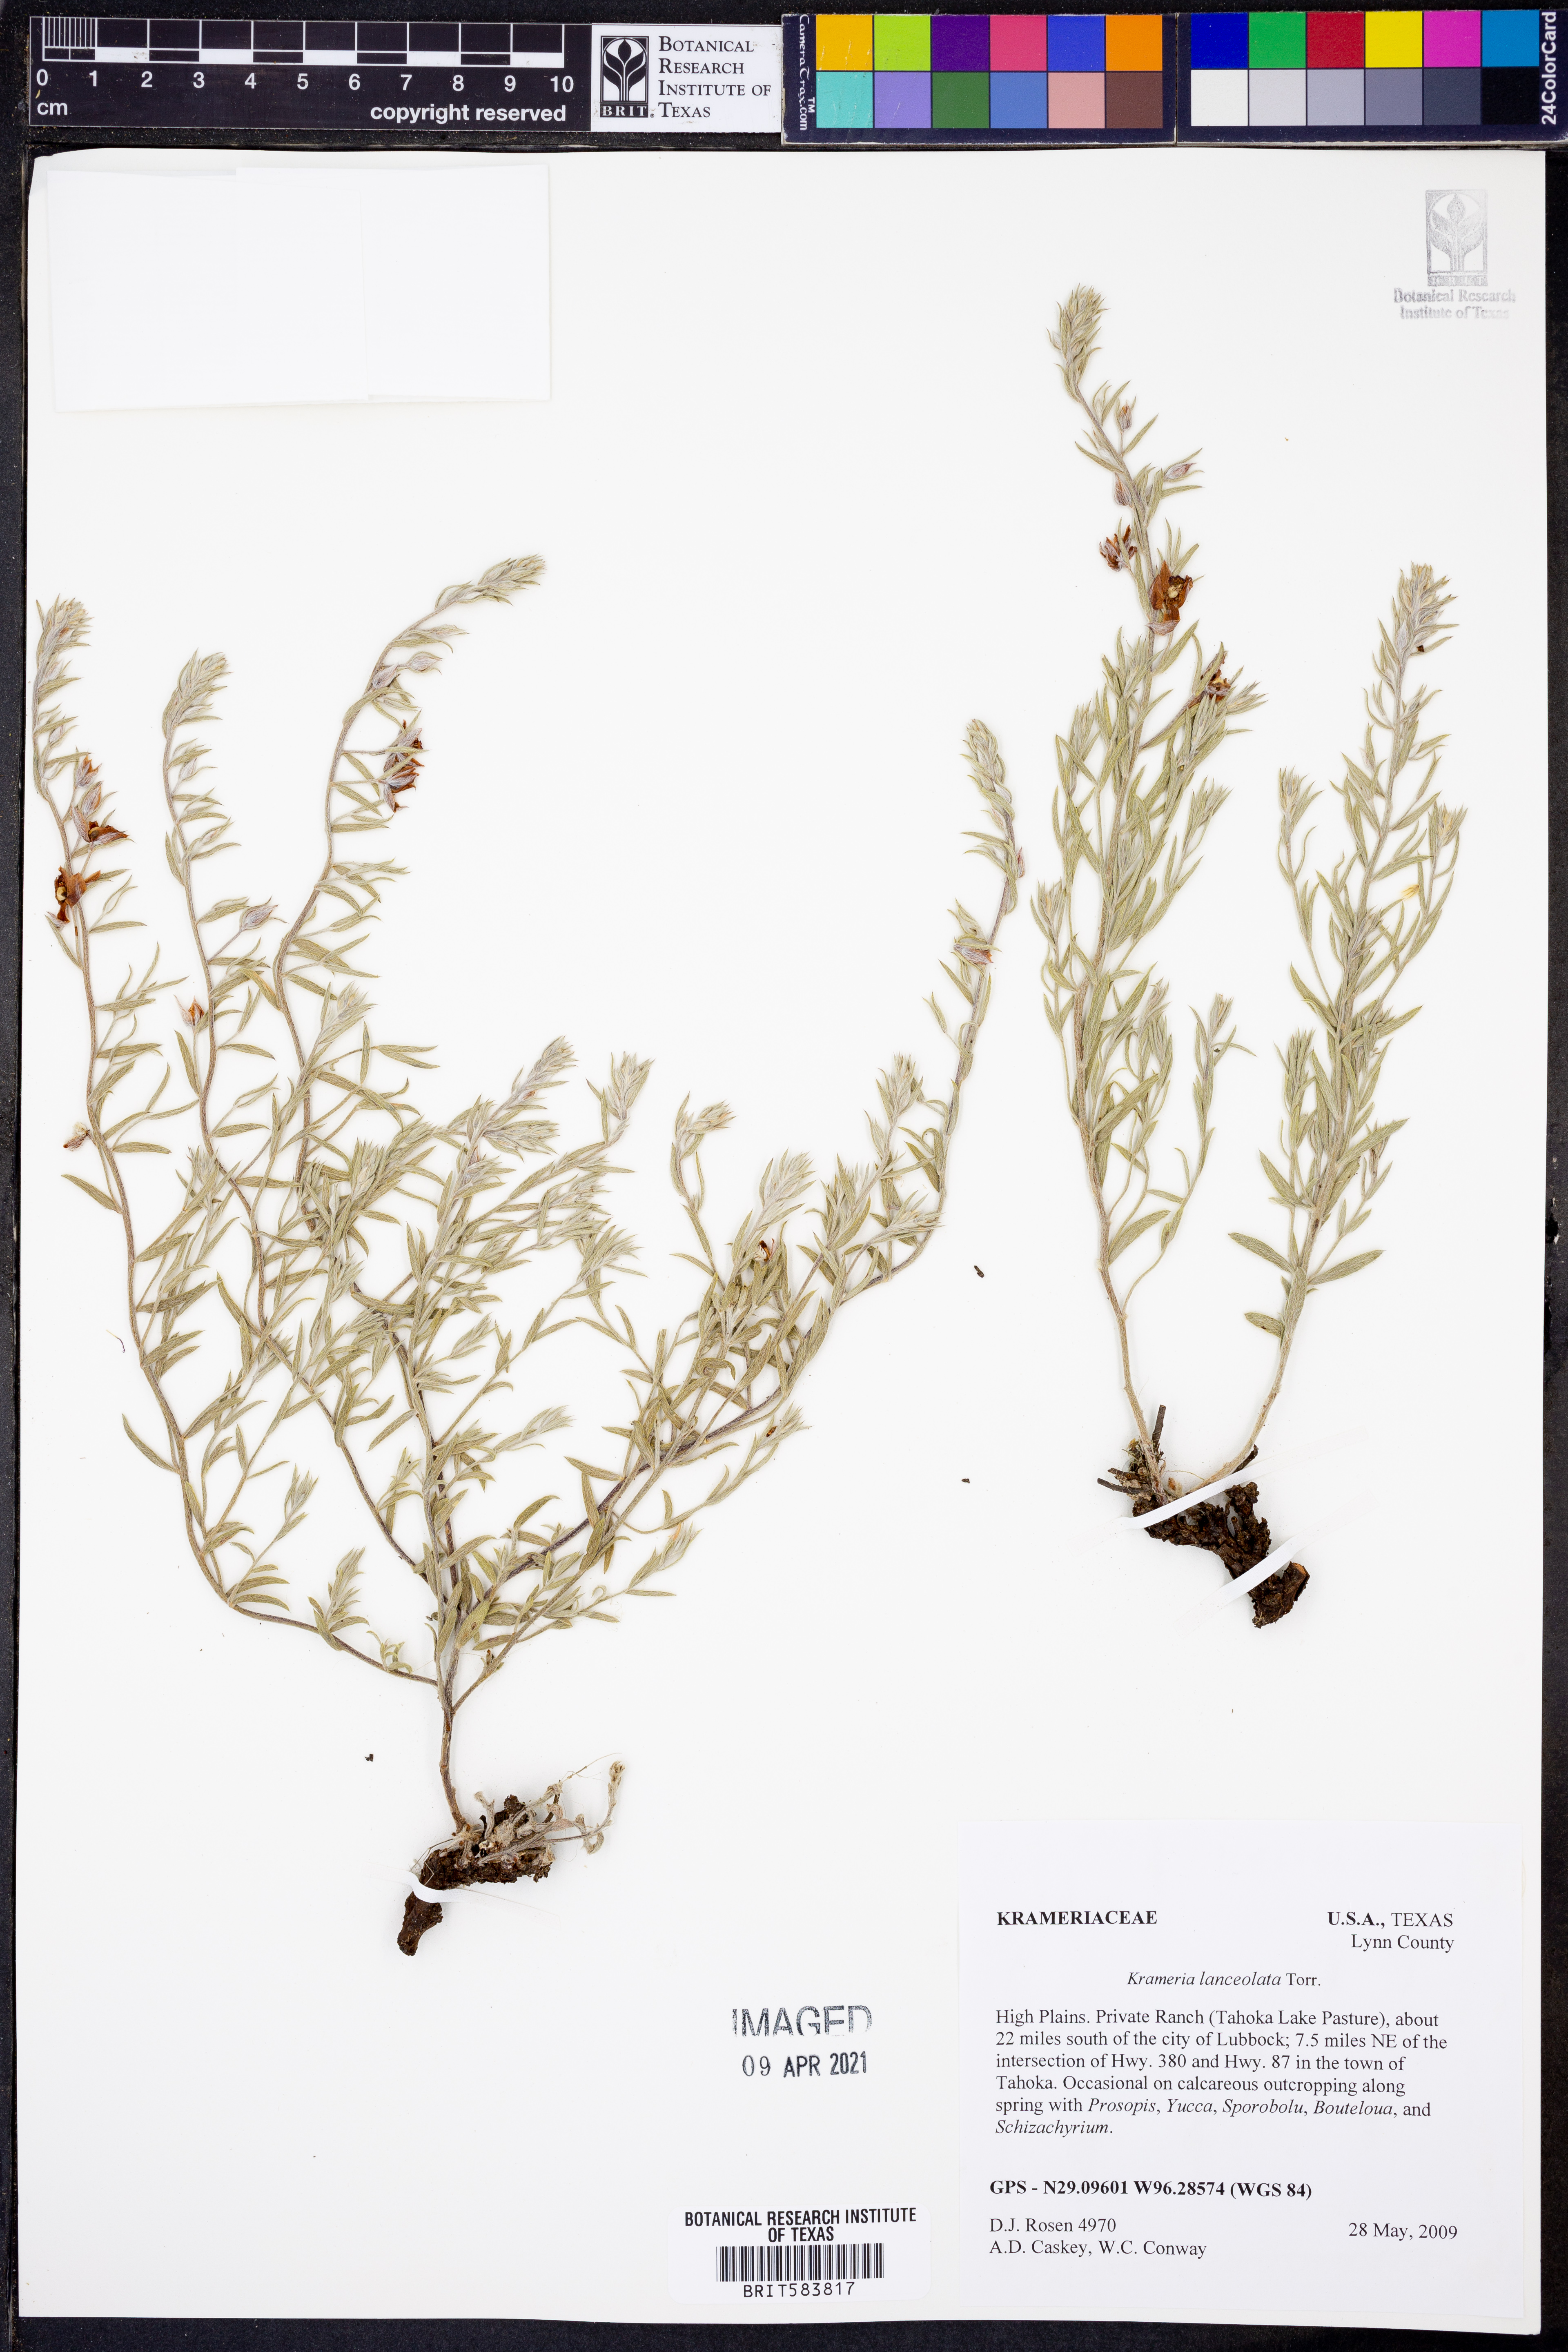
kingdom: Plantae
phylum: Tracheophyta
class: Magnoliopsida
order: Zygophyllales
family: Krameriaceae
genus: Krameria
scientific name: Krameria lanceolata
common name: Ratany
